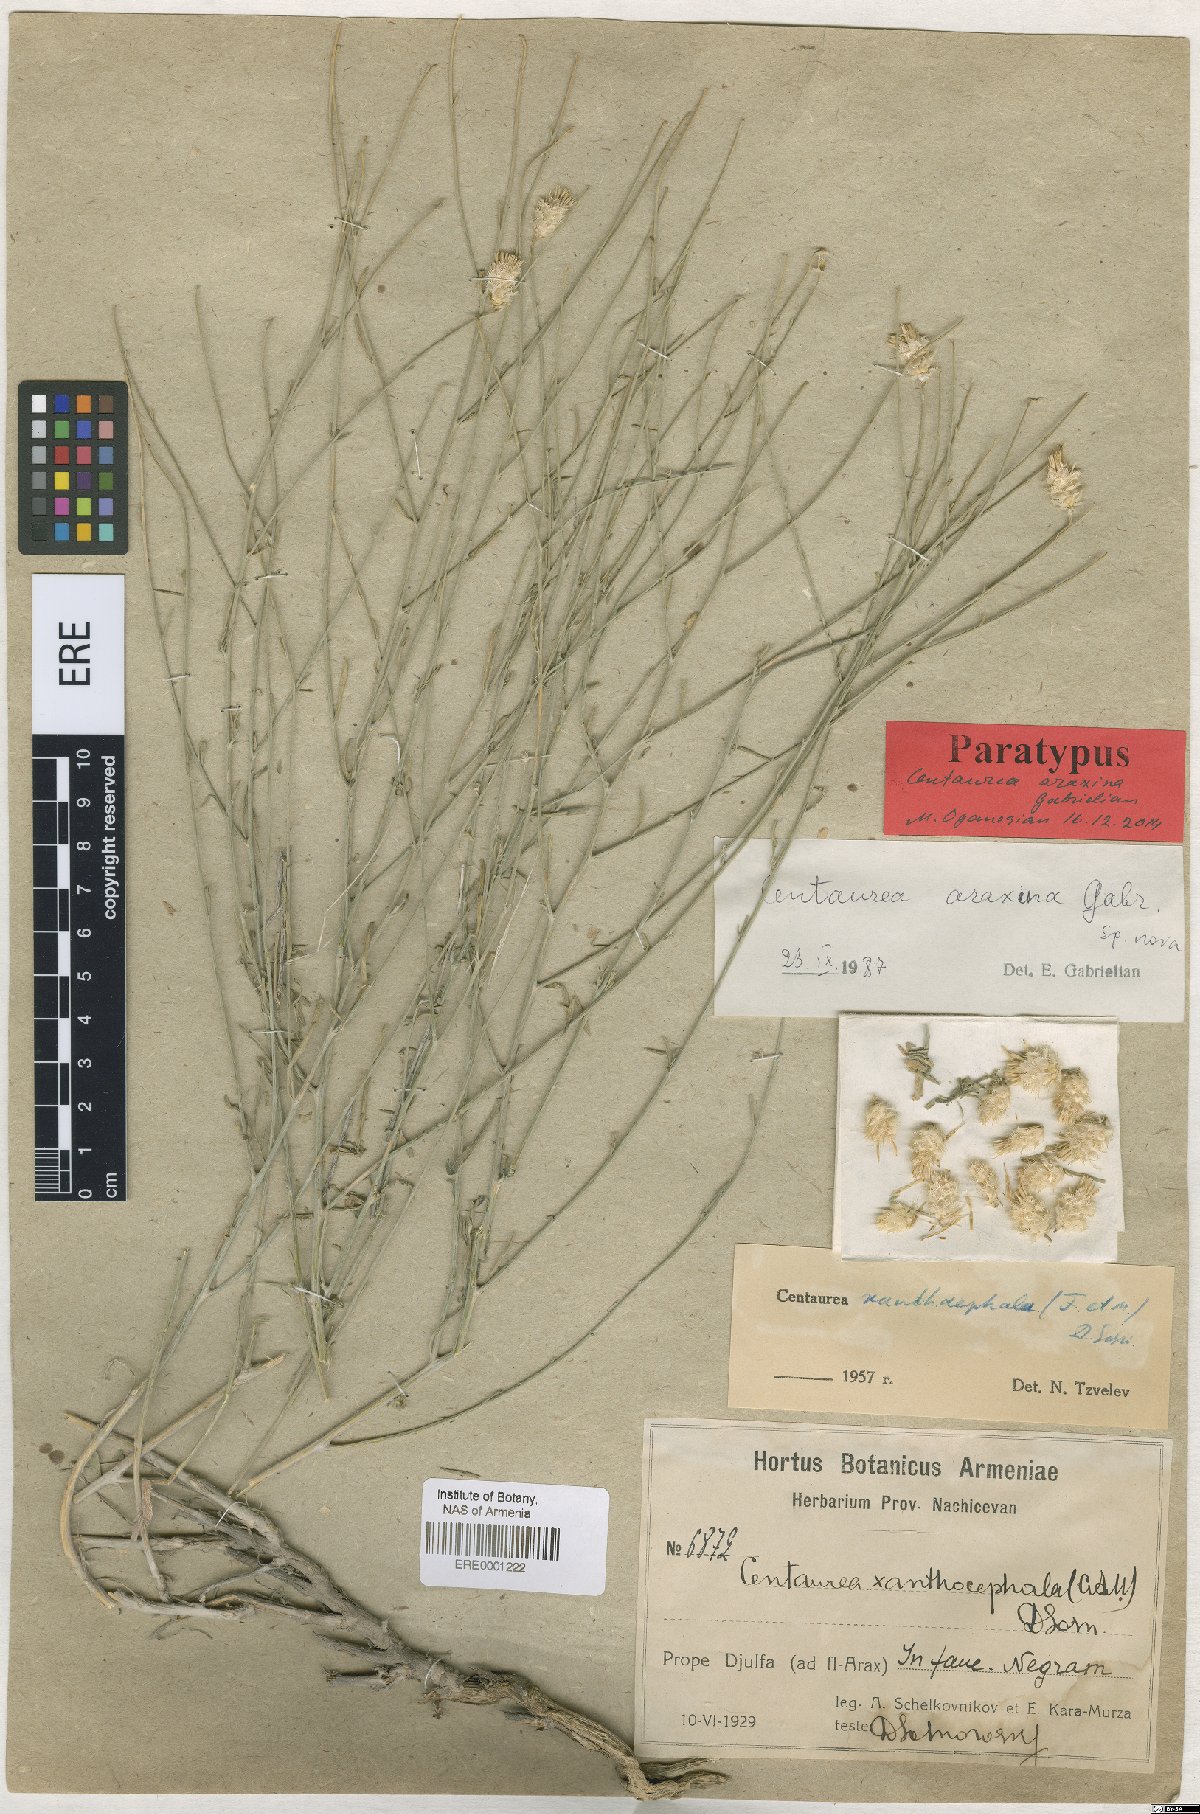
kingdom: Plantae
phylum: Tracheophyta
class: Magnoliopsida
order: Asterales
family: Asteraceae
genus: Psephellus
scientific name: Psephellus araxinus
